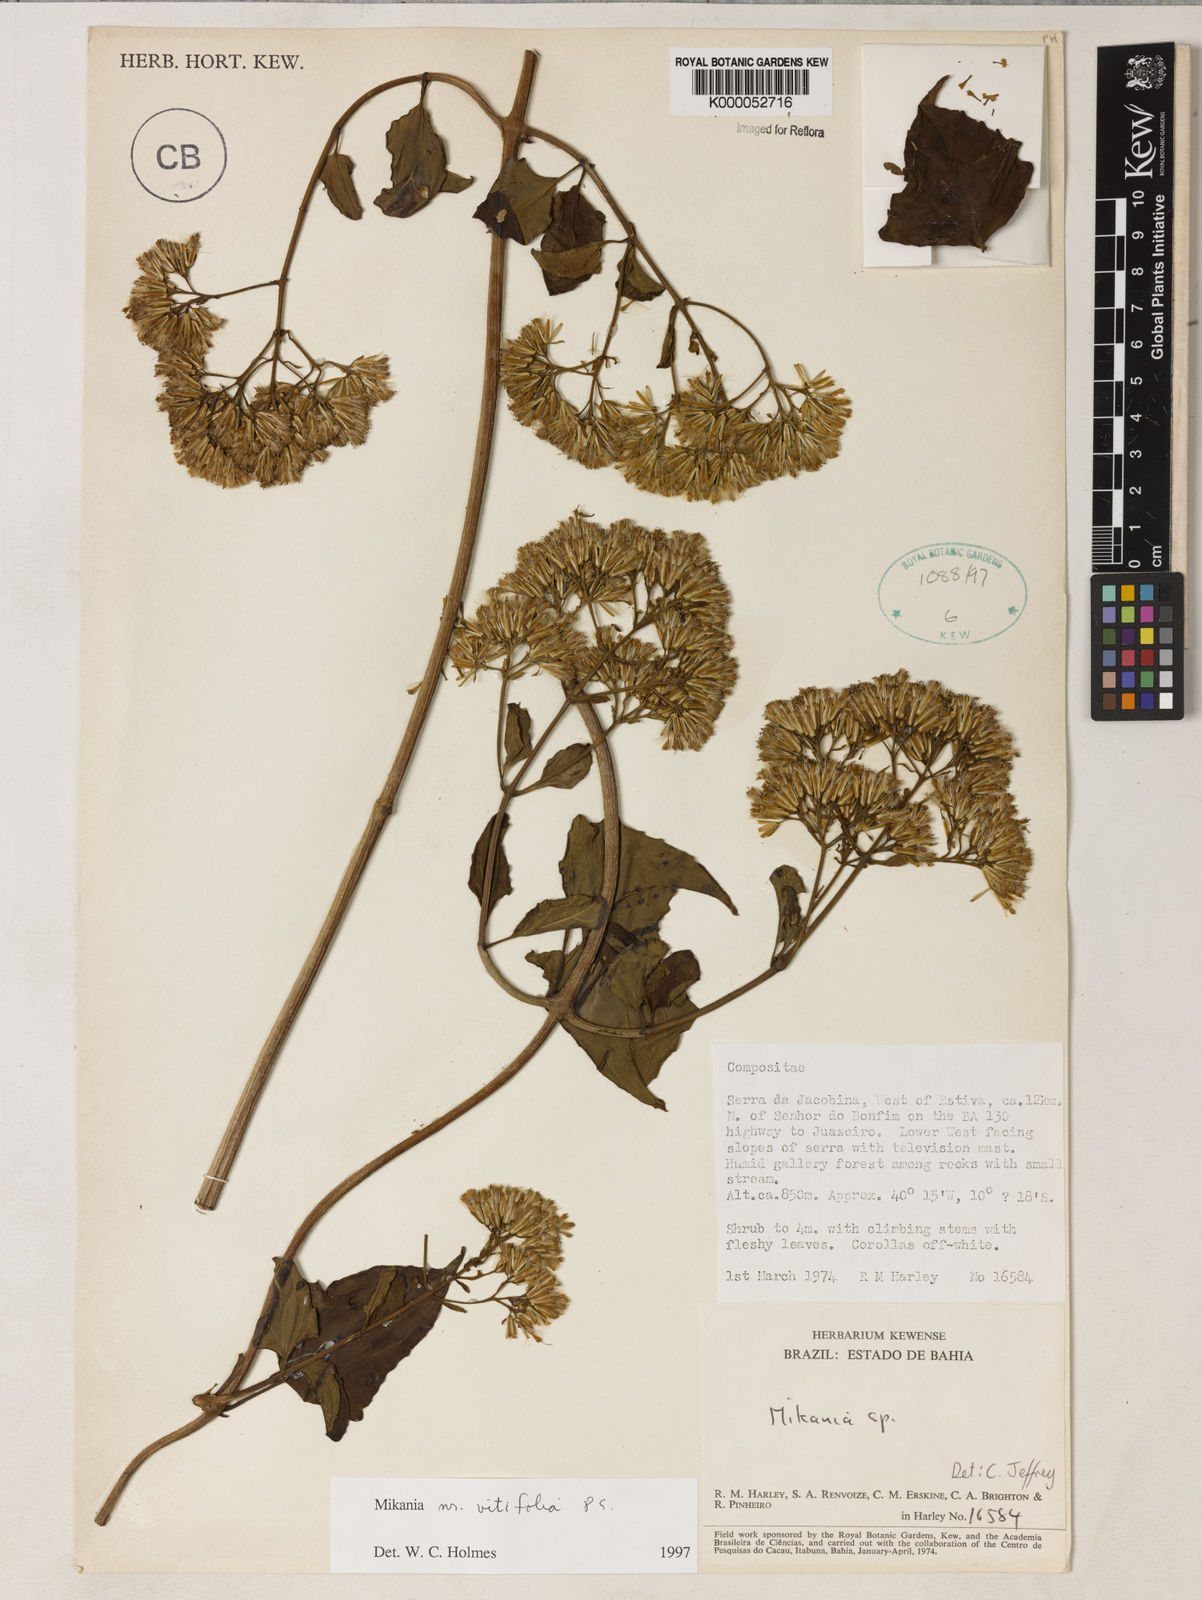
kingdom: Plantae
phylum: Tracheophyta
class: Magnoliopsida
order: Asterales
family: Asteraceae
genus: Mikania
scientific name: Mikania vitifolia
